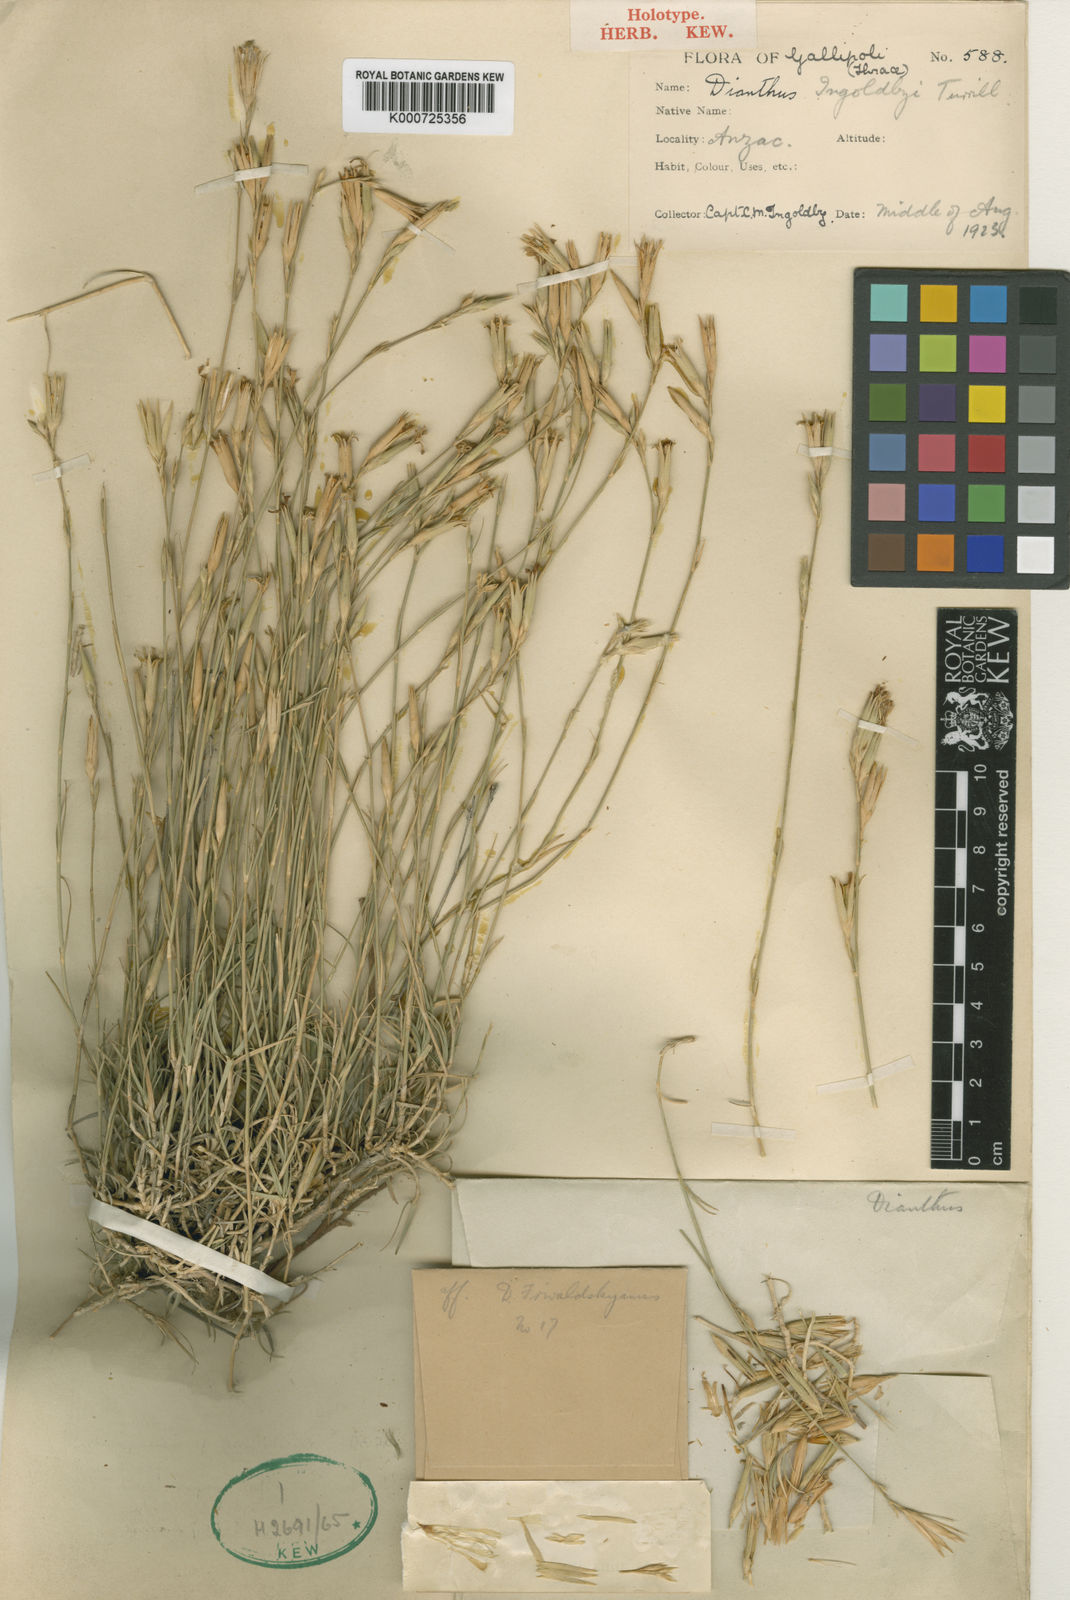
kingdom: Plantae
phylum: Tracheophyta
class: Magnoliopsida
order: Caryophyllales
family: Caryophyllaceae
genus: Dianthus
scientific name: Dianthus ingoldbyi
